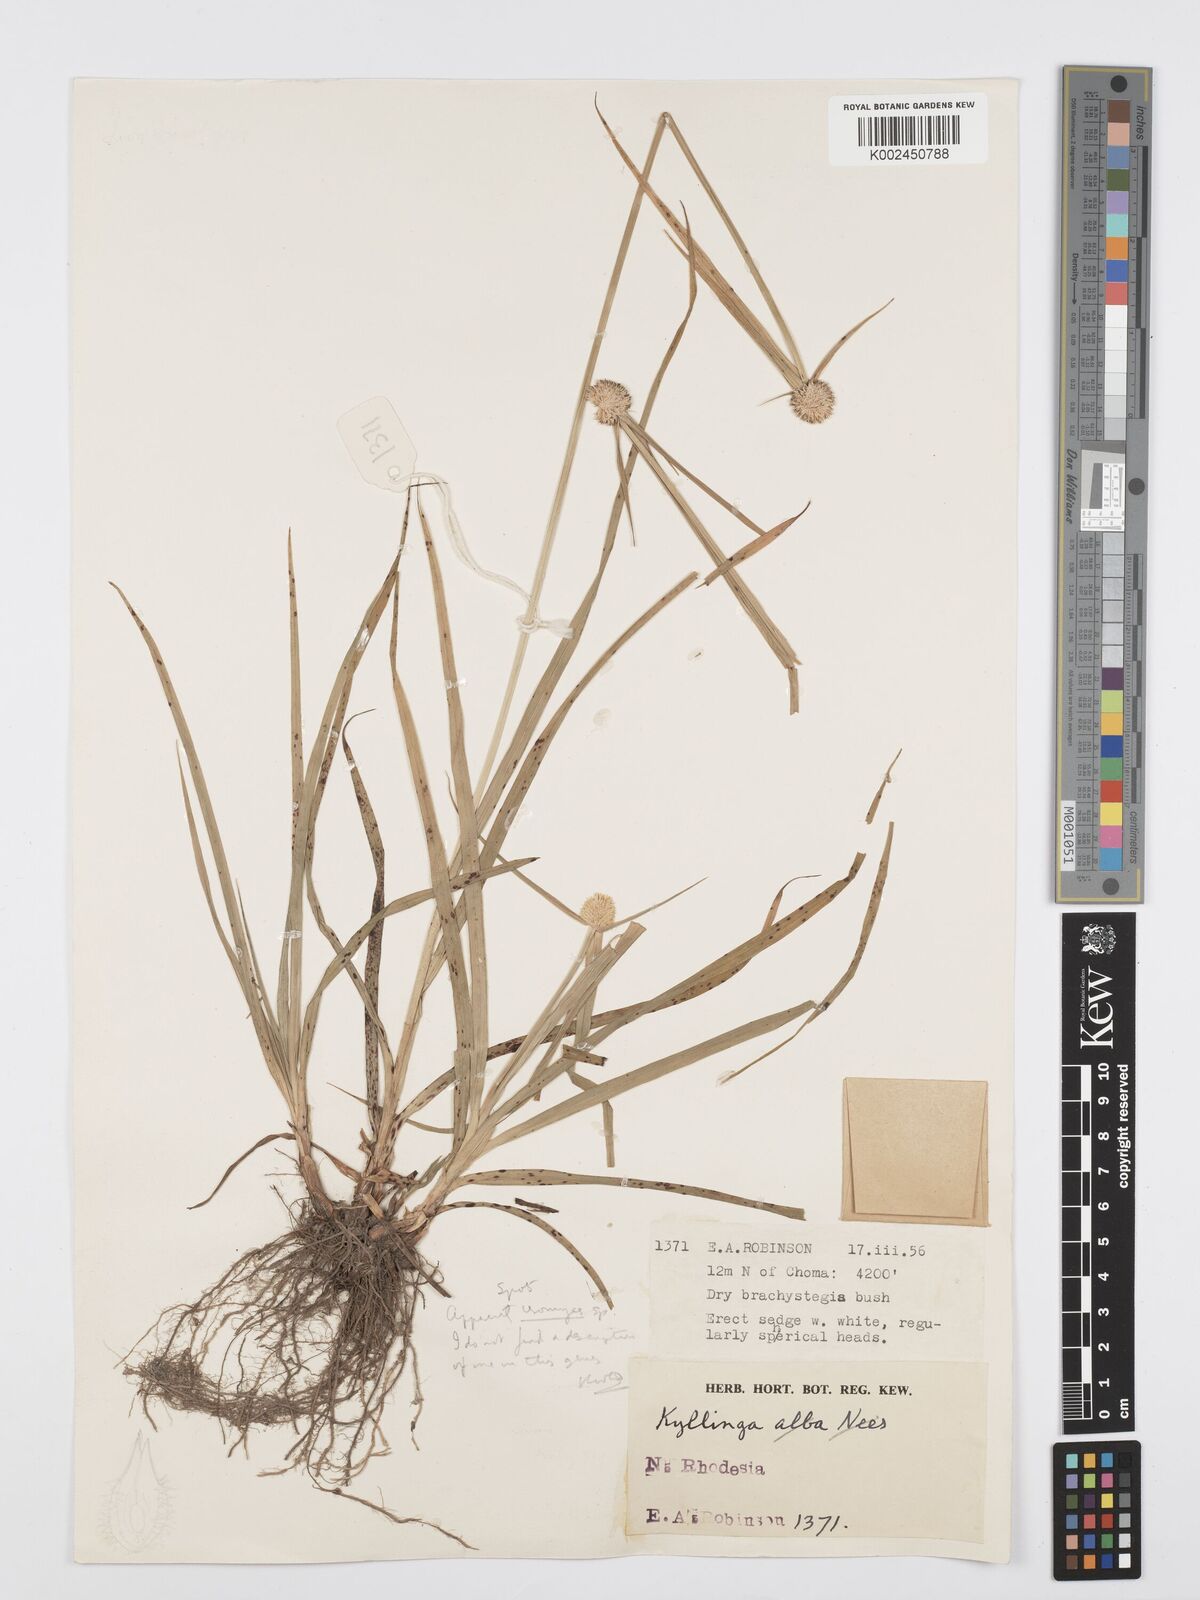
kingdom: Plantae
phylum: Tracheophyta
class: Liliopsida
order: Poales
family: Cyperaceae
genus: Cyperus
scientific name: Cyperus rukwanus
